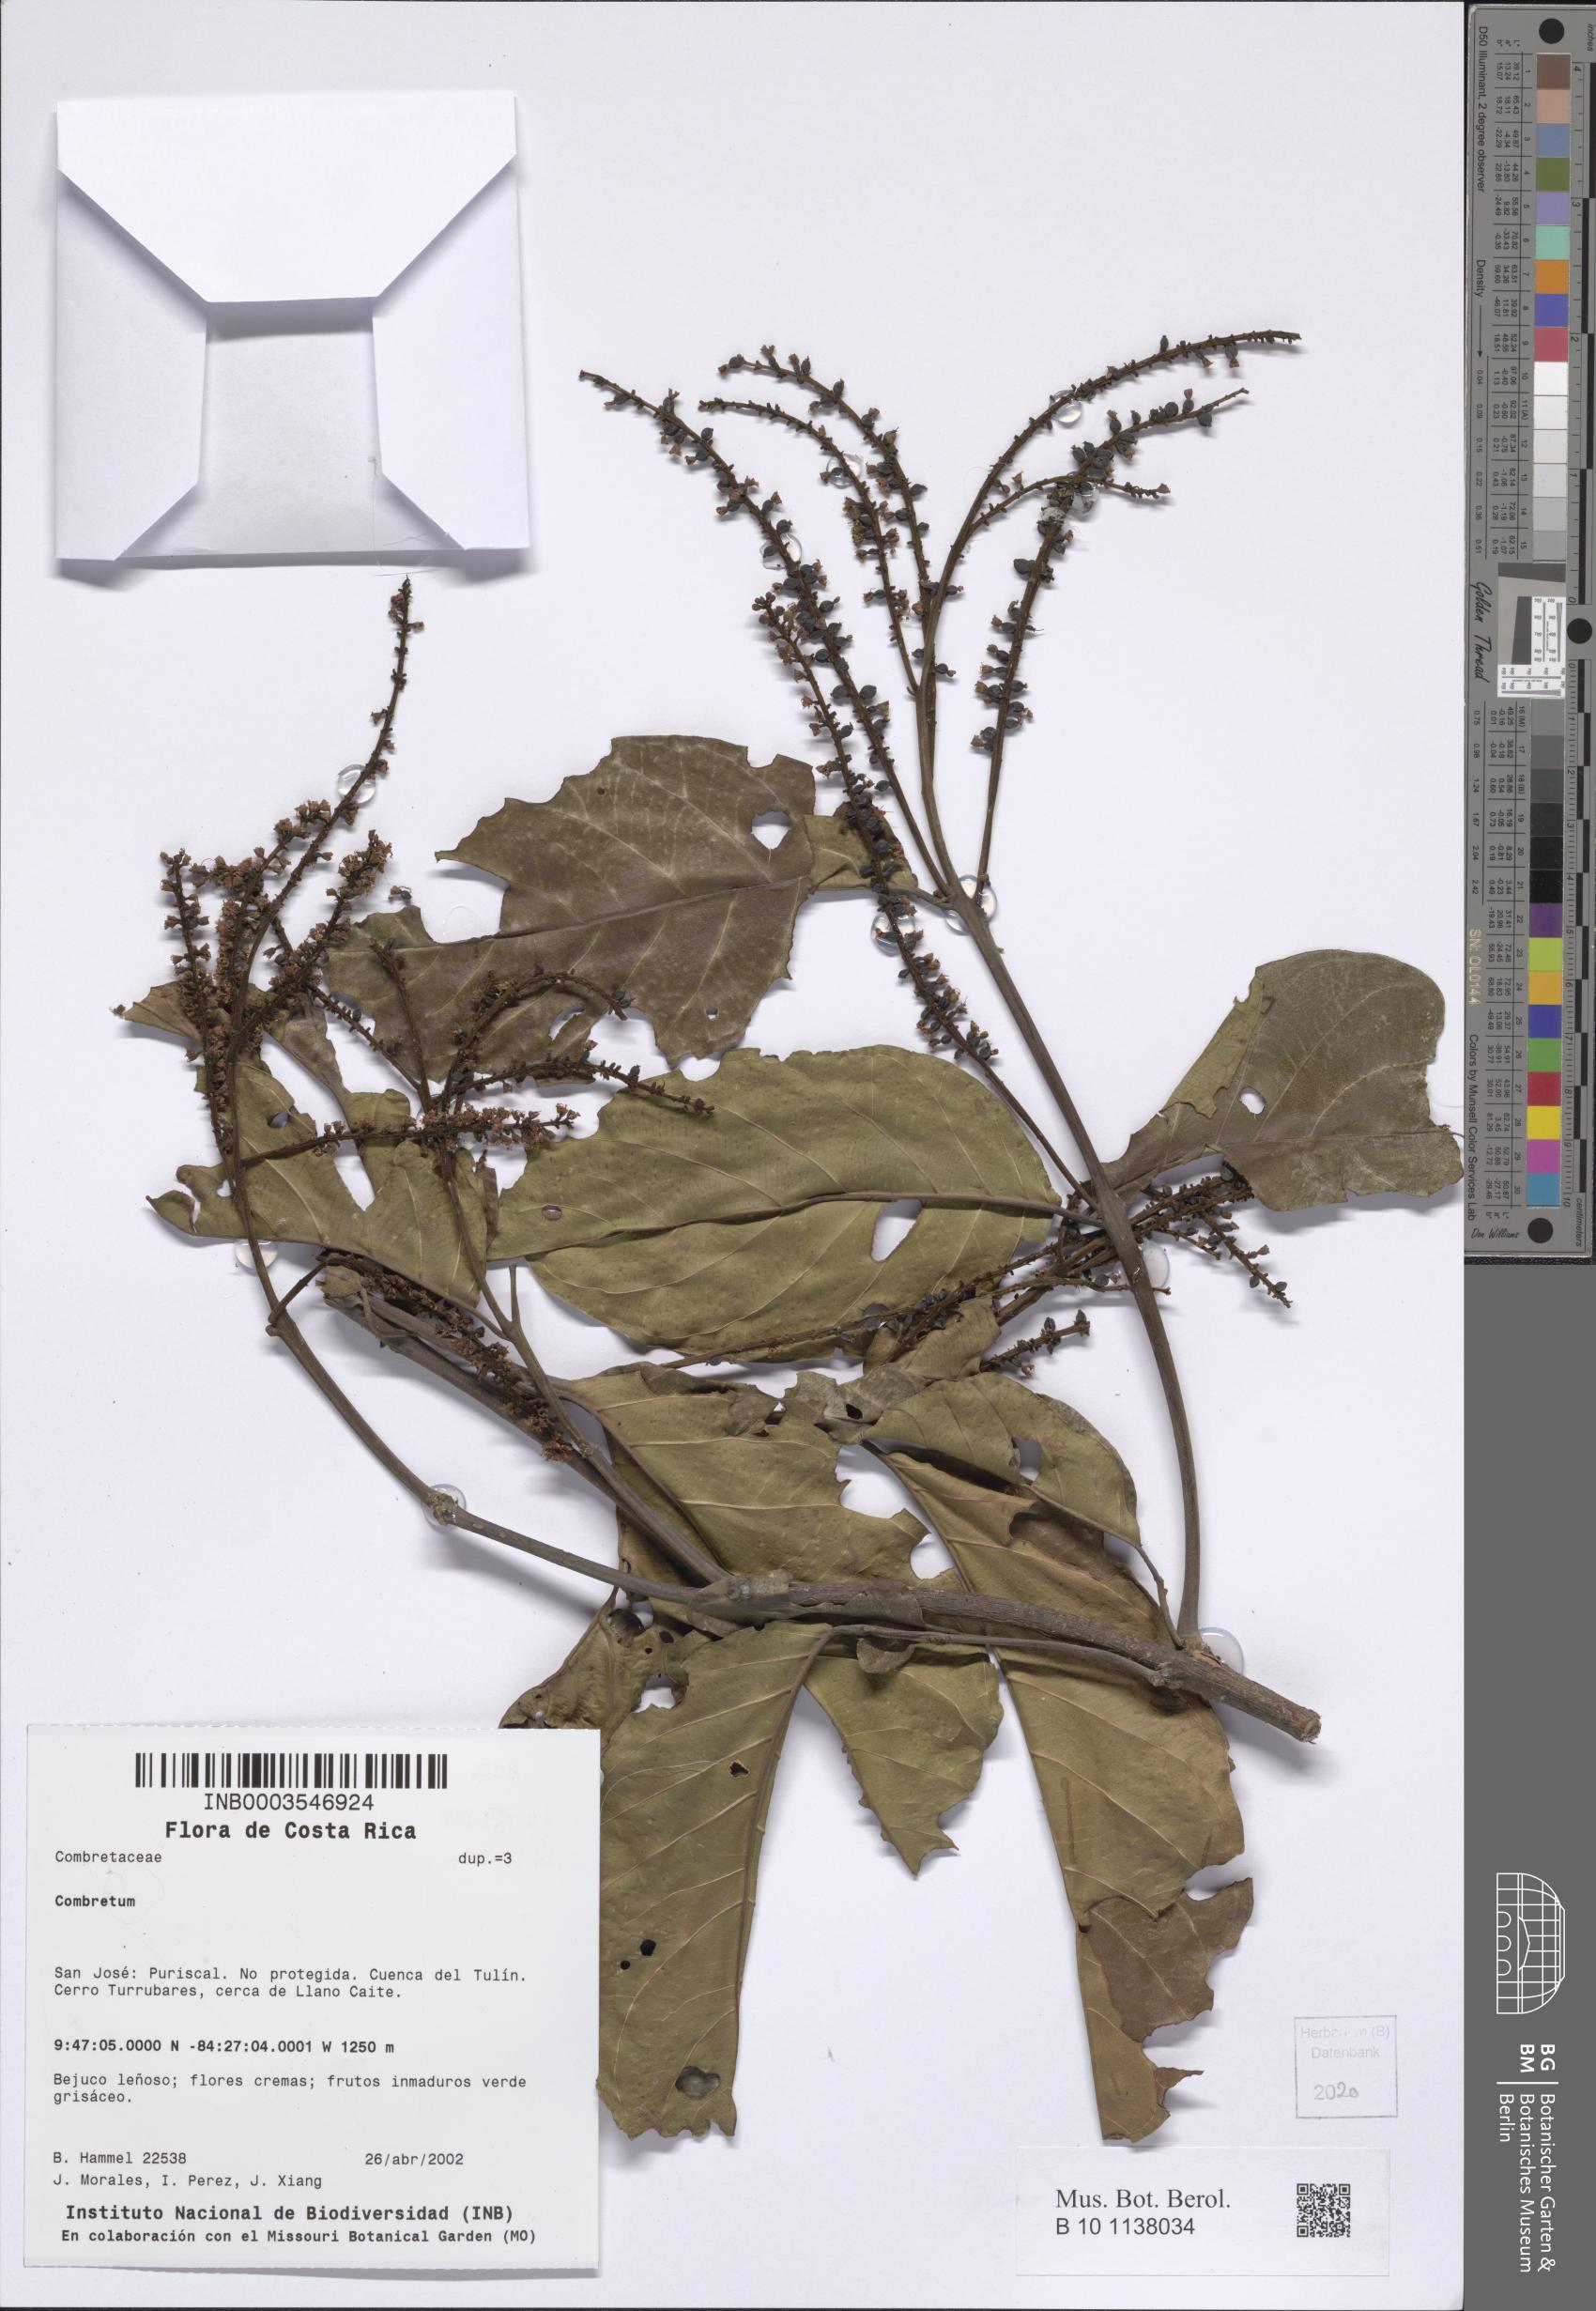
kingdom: Plantae
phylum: Tracheophyta
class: Magnoliopsida
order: Myrtales
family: Combretaceae
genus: Combretum
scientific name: Combretum
